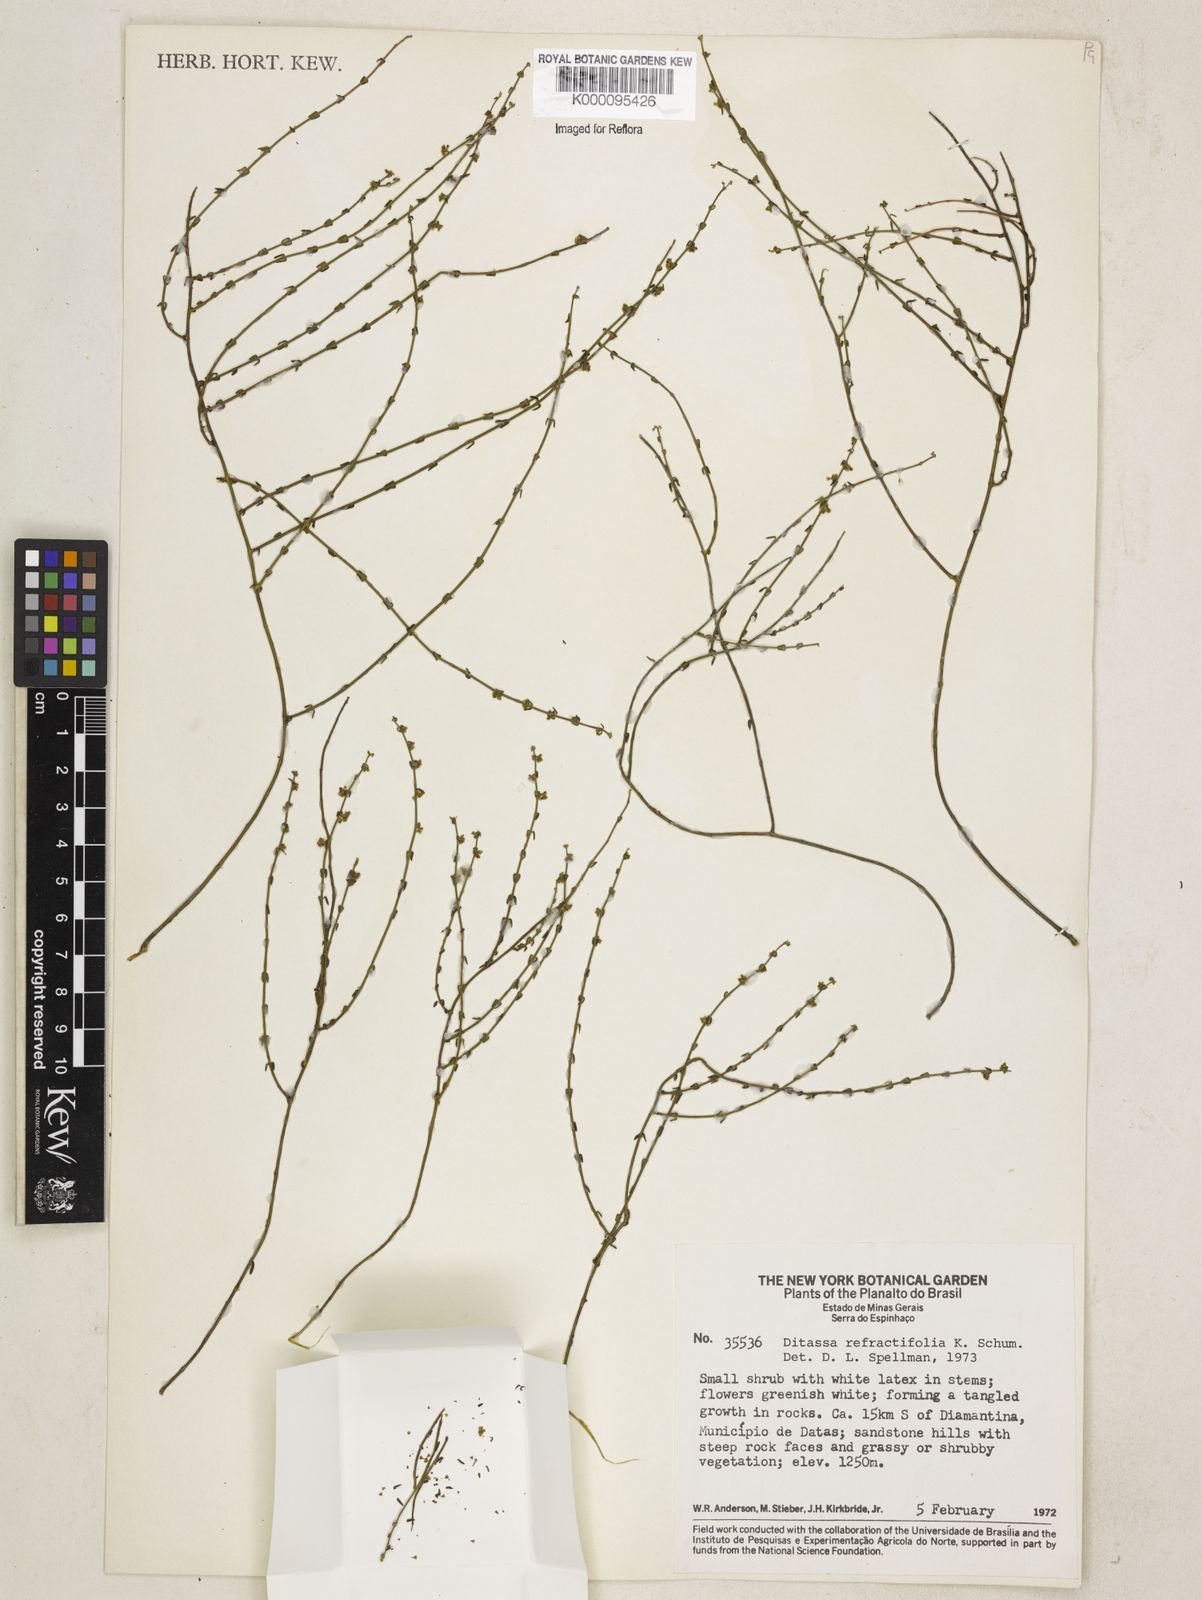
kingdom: Plantae
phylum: Tracheophyta
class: Magnoliopsida
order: Gentianales
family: Apocynaceae
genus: Minaria
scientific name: Minaria refractifolia
